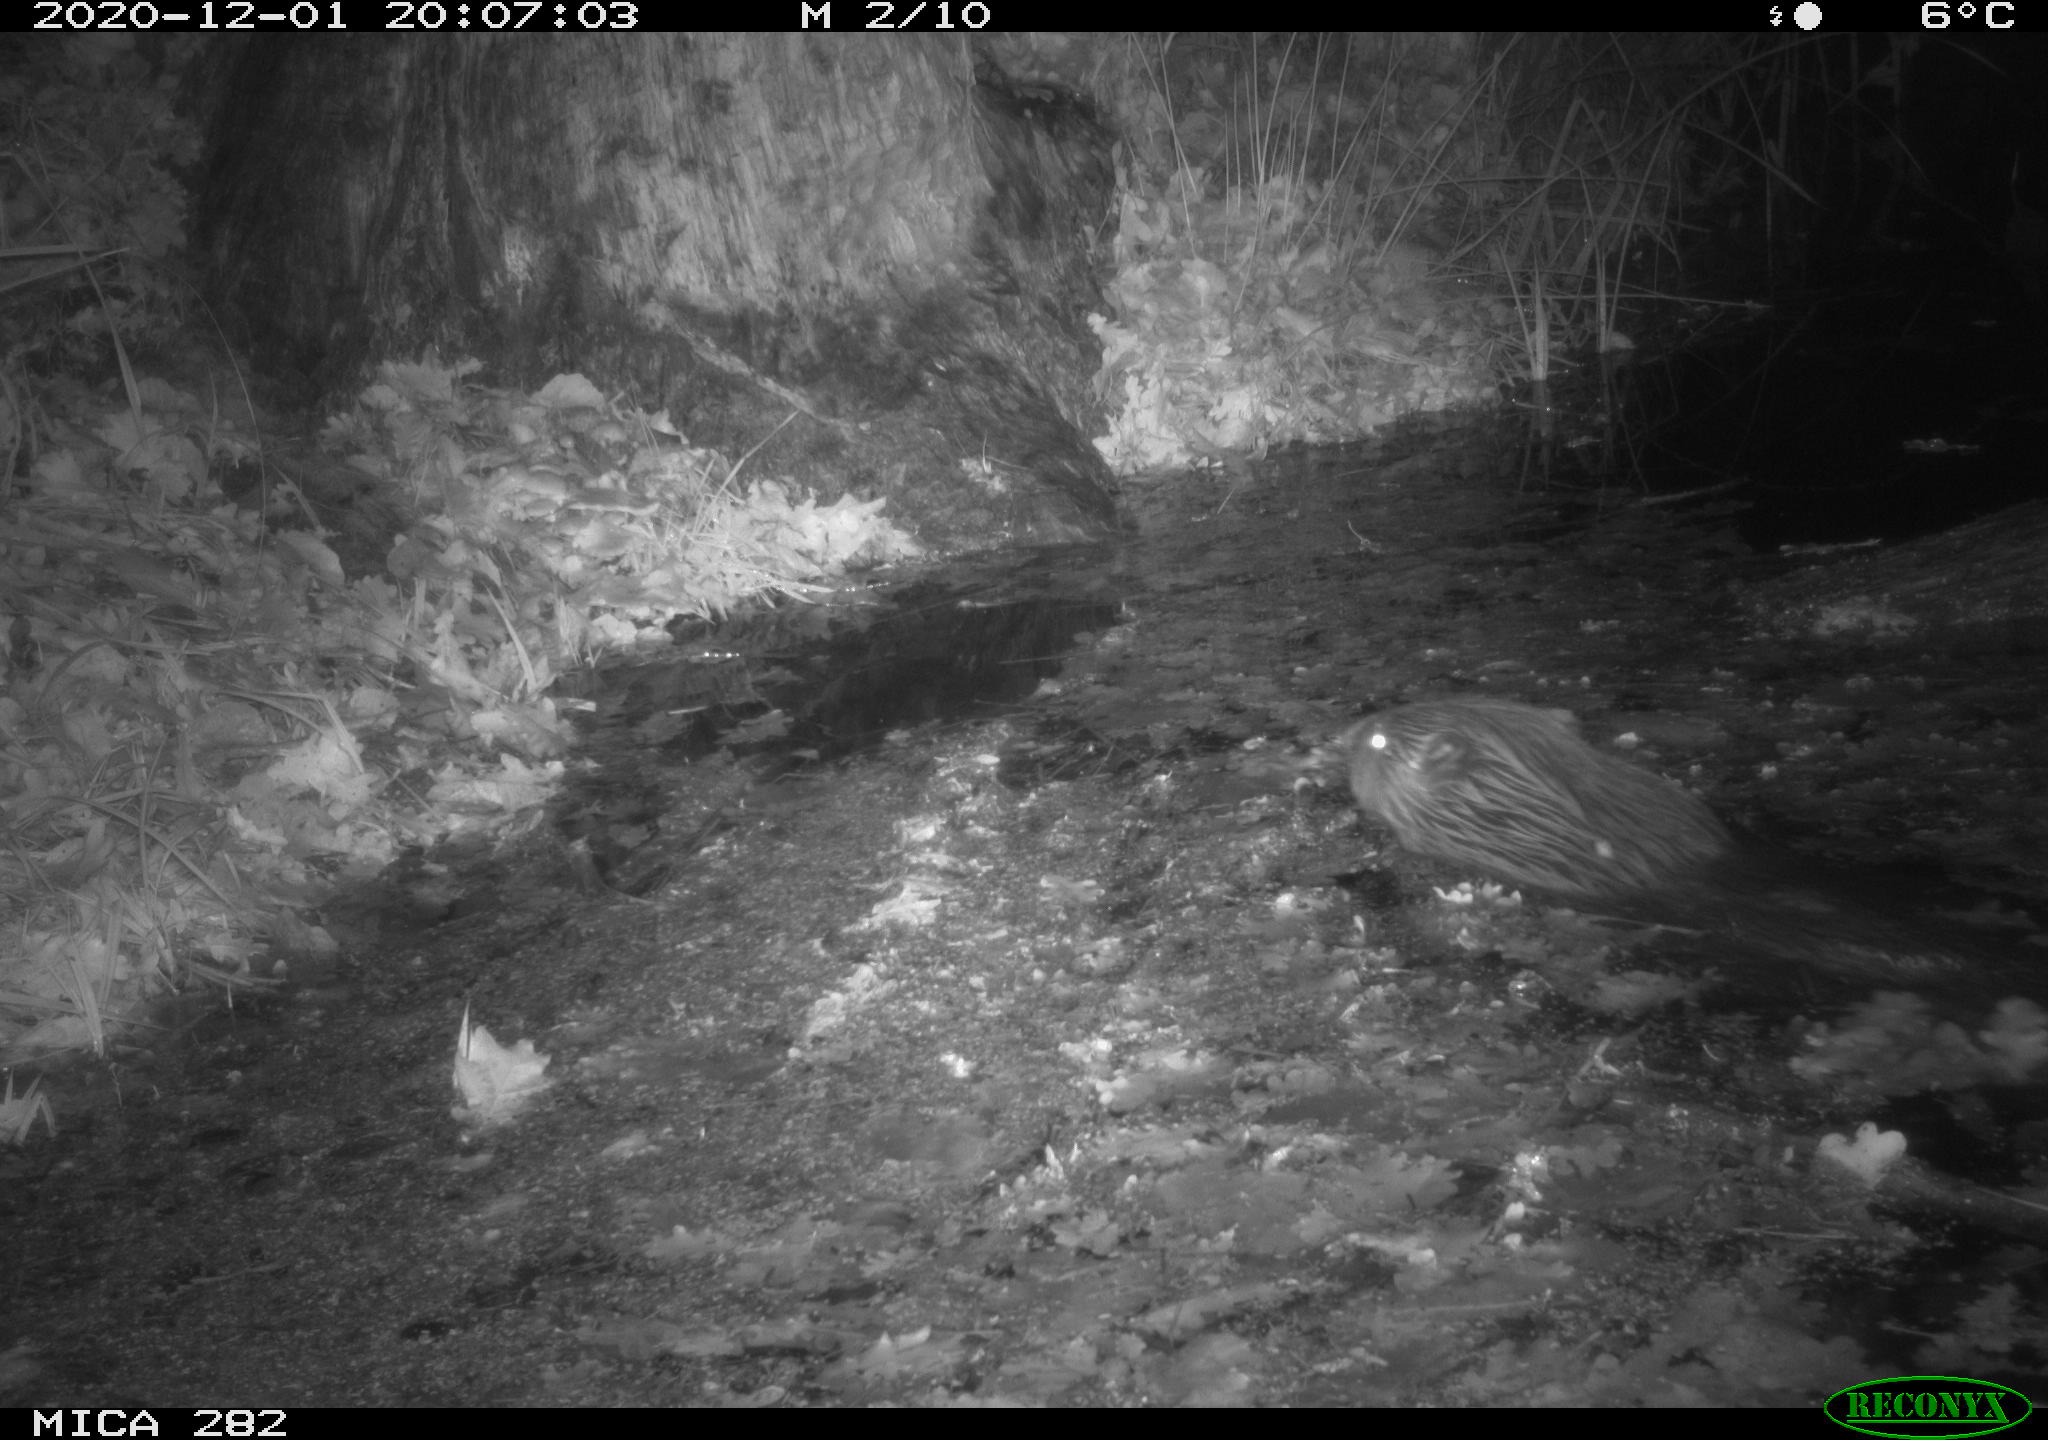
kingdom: Animalia
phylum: Chordata
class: Mammalia
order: Rodentia
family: Castoridae
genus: Castor
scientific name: Castor fiber
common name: Eurasian beaver
